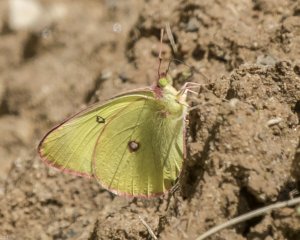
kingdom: Animalia
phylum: Arthropoda
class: Insecta
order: Lepidoptera
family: Pieridae
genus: Colias
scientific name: Colias interior
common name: Pink-edged Sulphur
